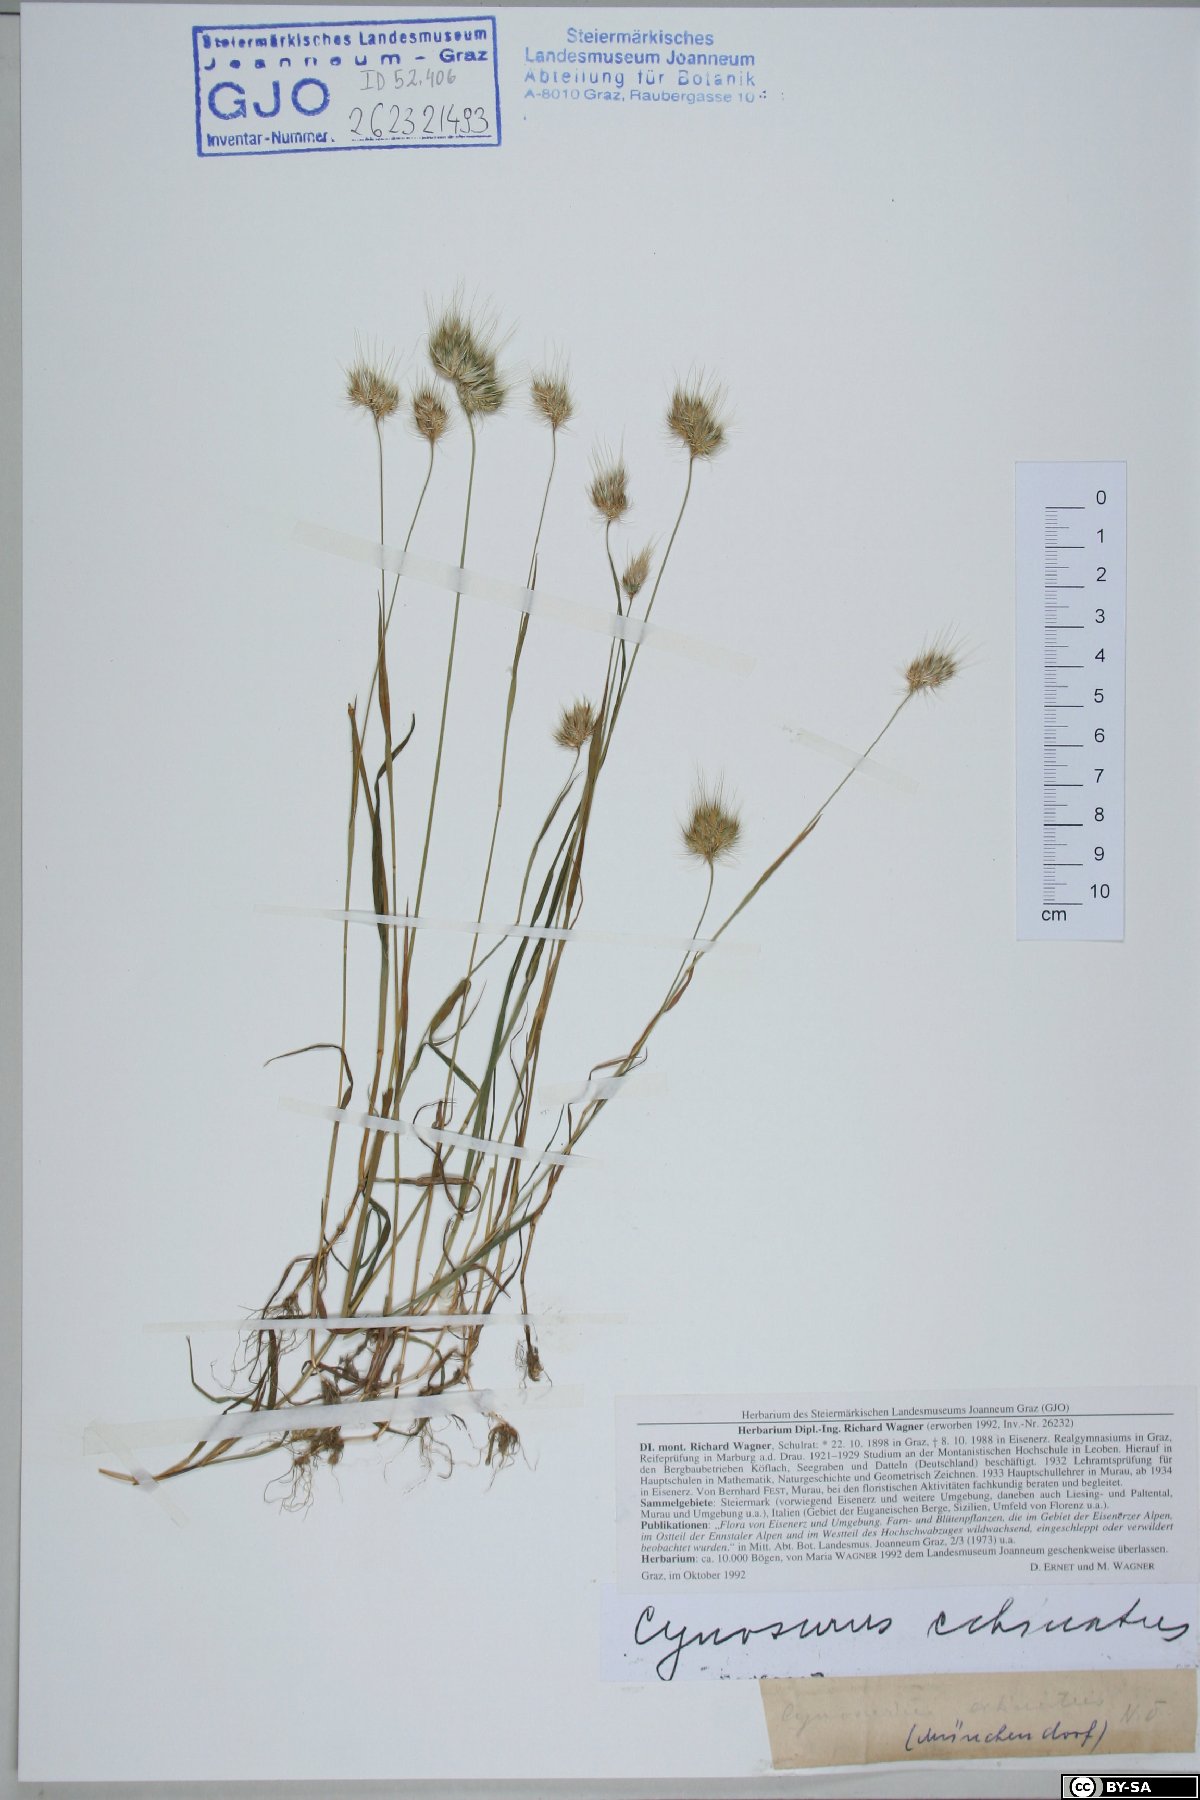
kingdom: Plantae
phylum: Tracheophyta
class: Liliopsida
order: Poales
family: Poaceae
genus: Cynosurus
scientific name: Cynosurus echinatus
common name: Rough dog's-tail
